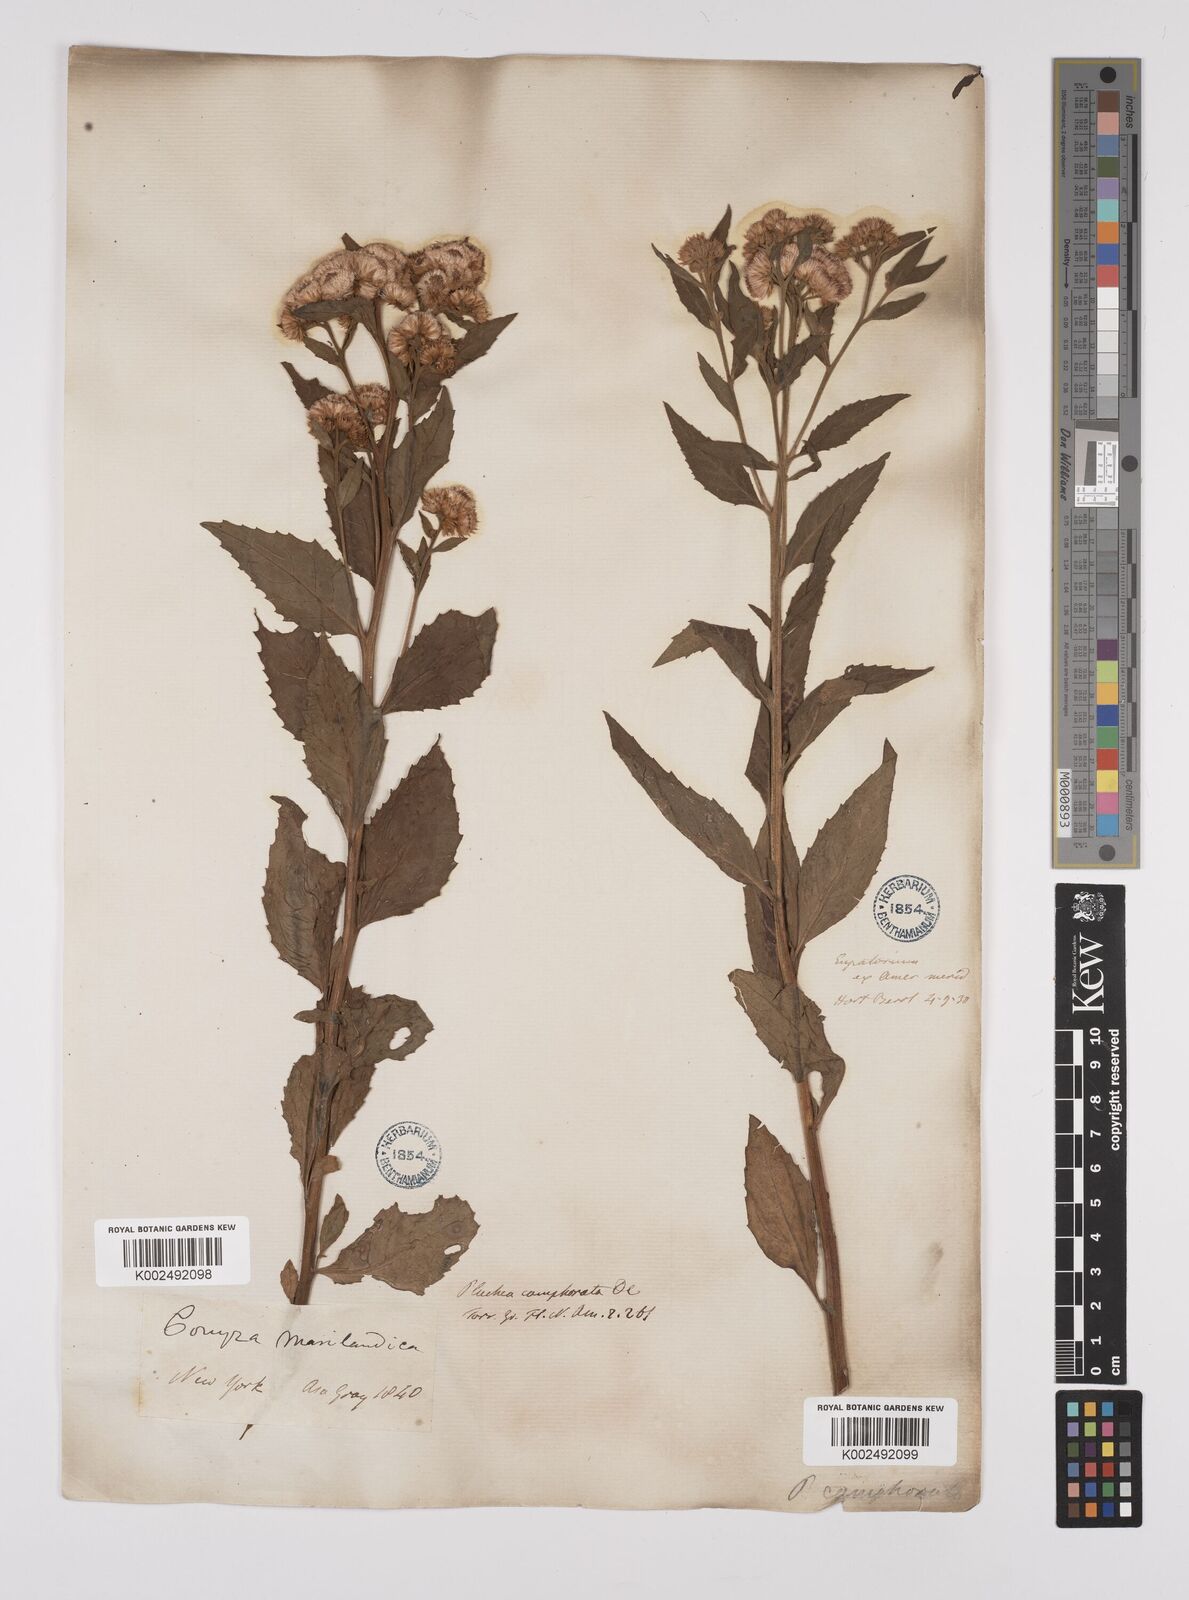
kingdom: Plantae
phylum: Tracheophyta
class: Magnoliopsida
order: Asterales
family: Asteraceae
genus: Pluchea
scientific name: Pluchea camphorata
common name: Camphor pluchea
